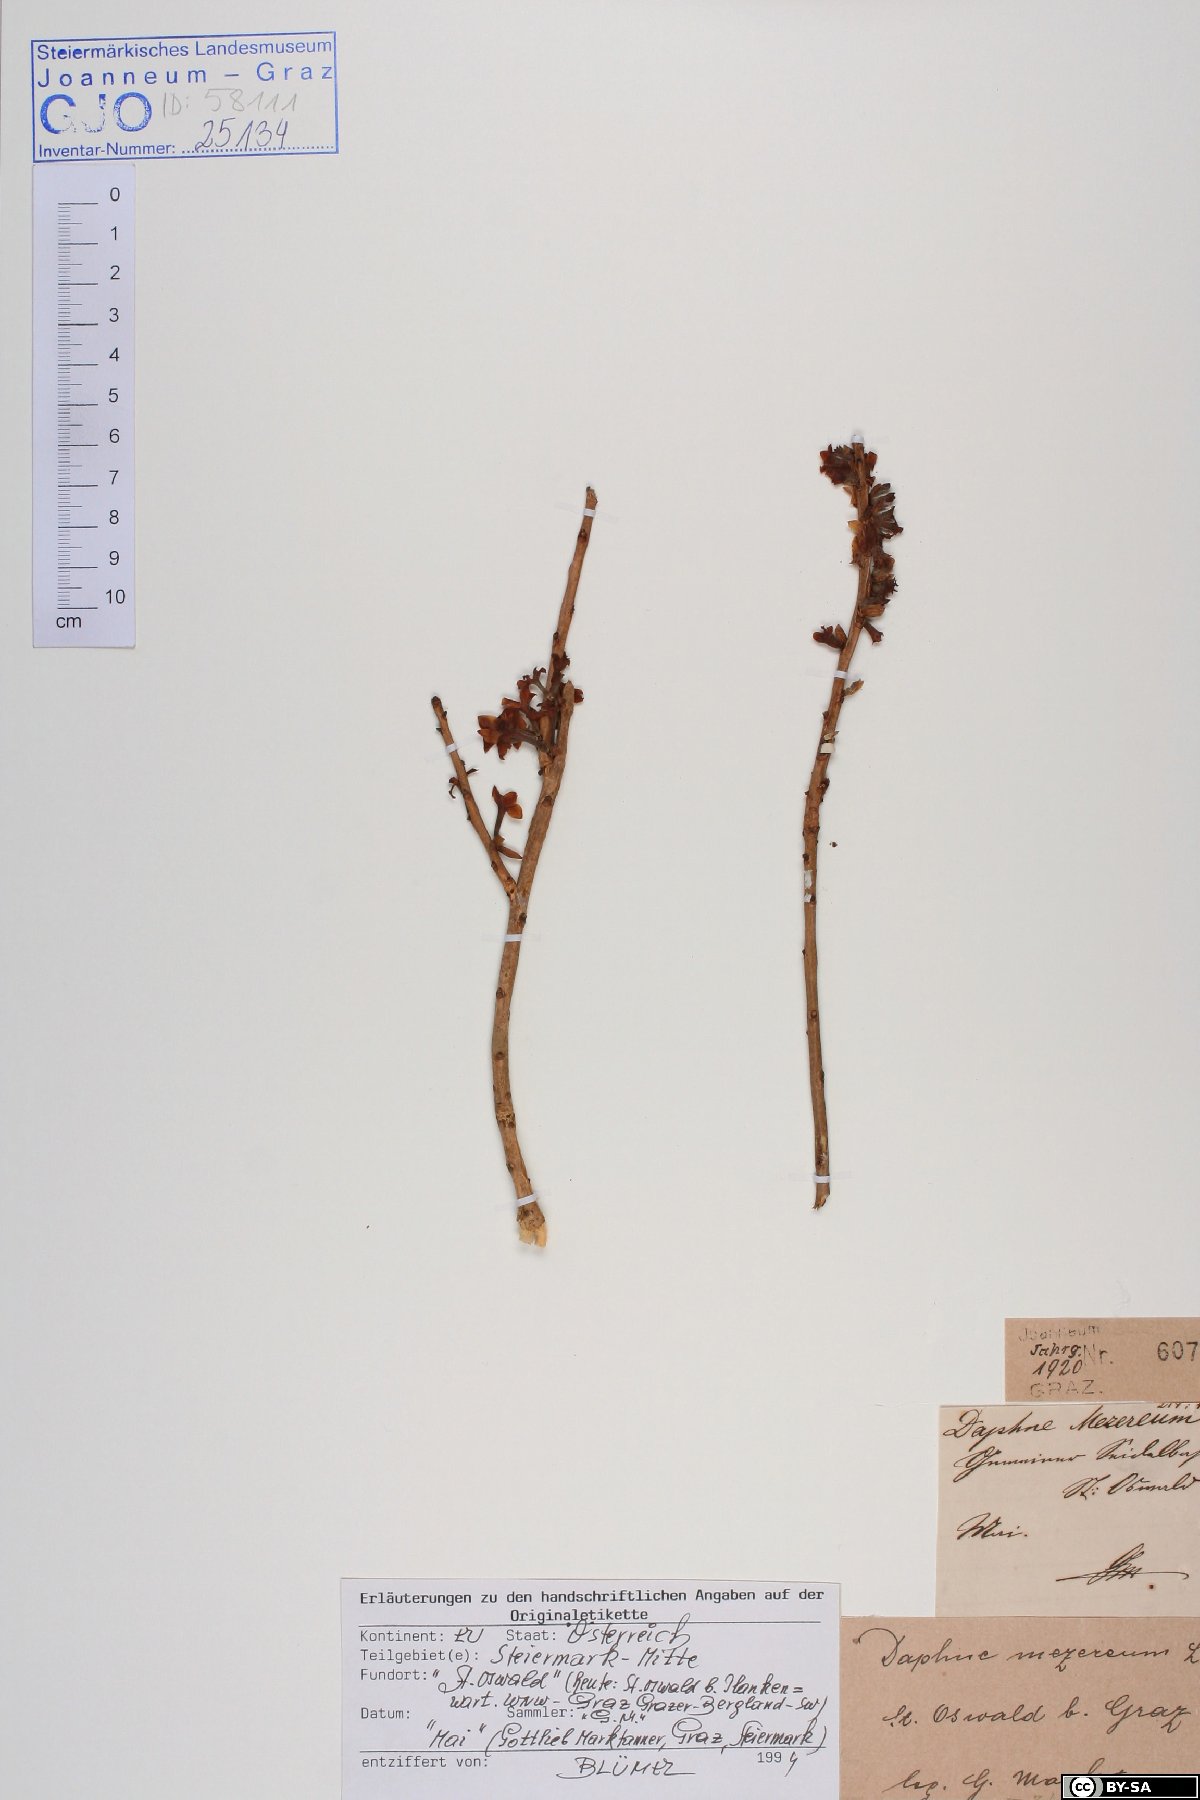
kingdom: Plantae
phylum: Tracheophyta
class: Magnoliopsida
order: Malvales
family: Thymelaeaceae
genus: Daphne
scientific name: Daphne mezereum
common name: Mezereon
